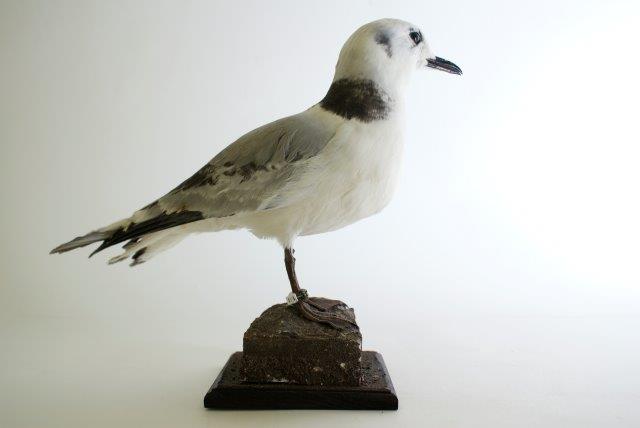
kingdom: Animalia
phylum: Chordata
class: Aves
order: Charadriiformes
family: Laridae
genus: Rissa
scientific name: Rissa tridactyla
